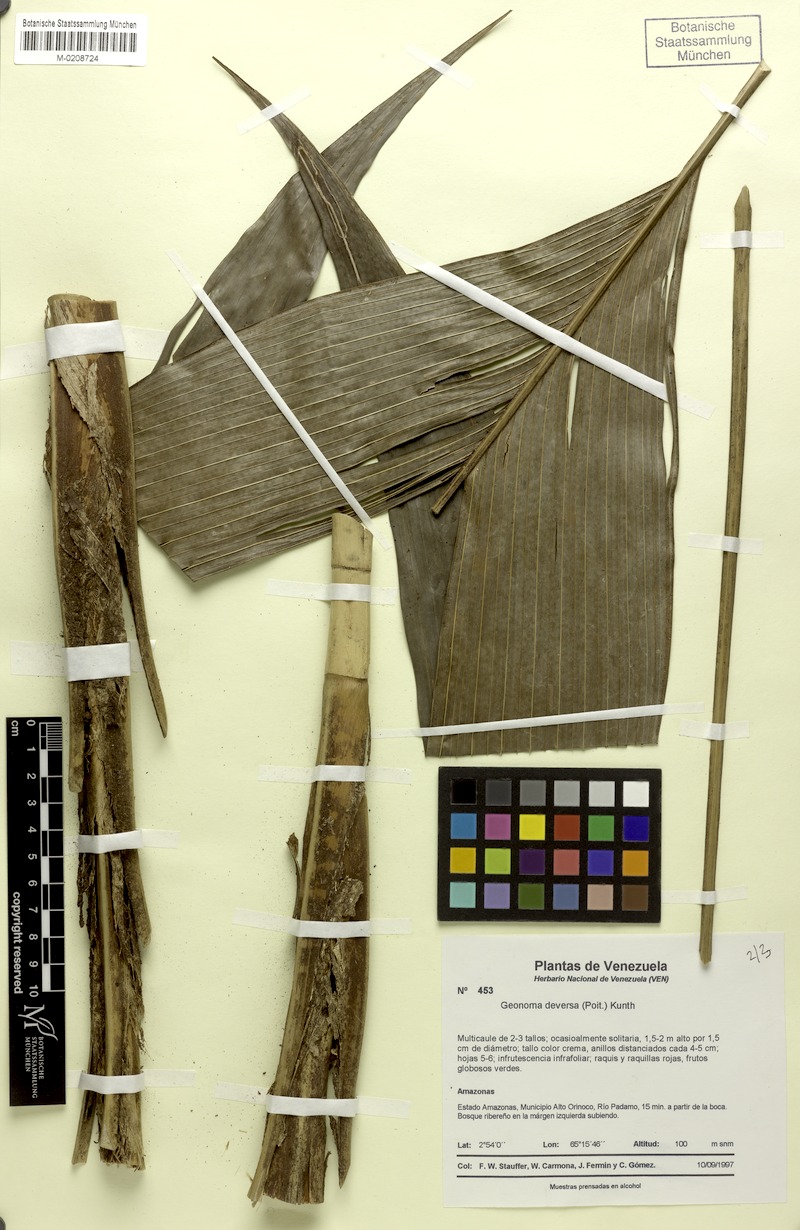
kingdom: Plantae
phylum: Tracheophyta
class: Liliopsida
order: Arecales
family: Arecaceae
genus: Geonoma
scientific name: Geonoma deversa
